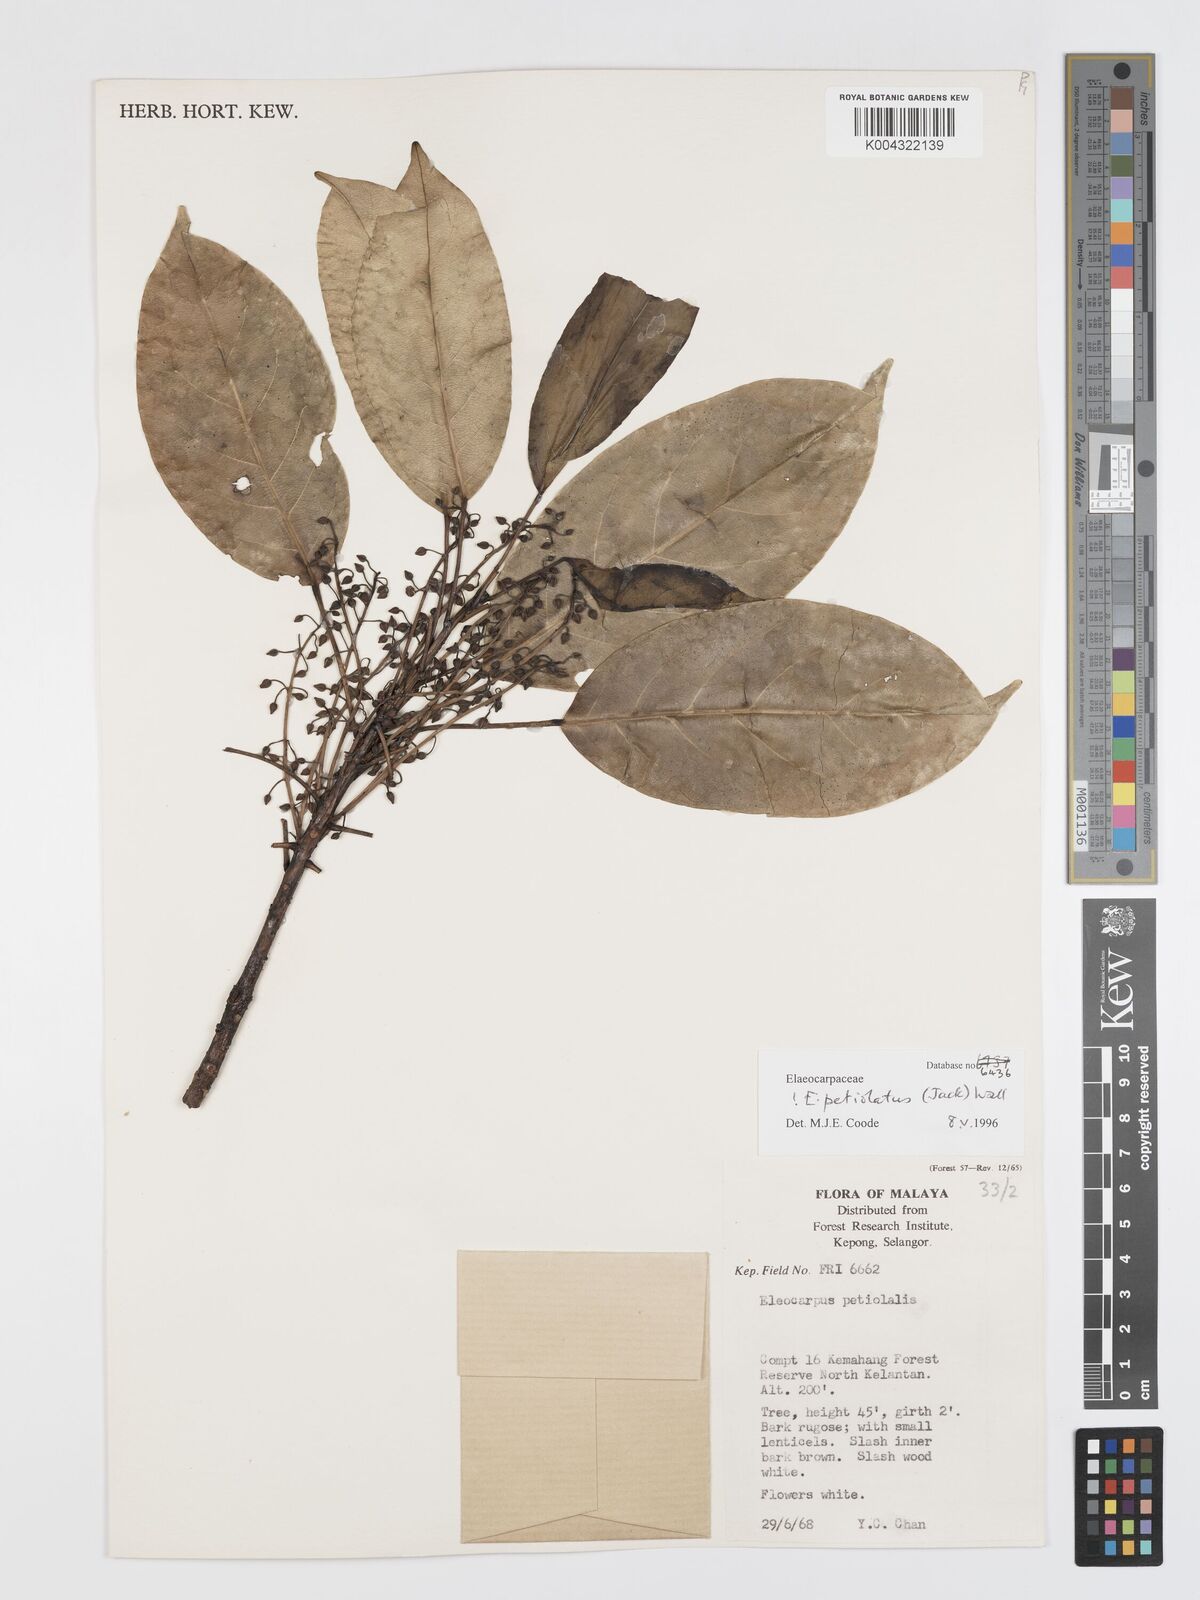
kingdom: Plantae
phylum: Tracheophyta
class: Magnoliopsida
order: Oxalidales
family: Elaeocarpaceae
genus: Elaeocarpus
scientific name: Elaeocarpus petiolatus
